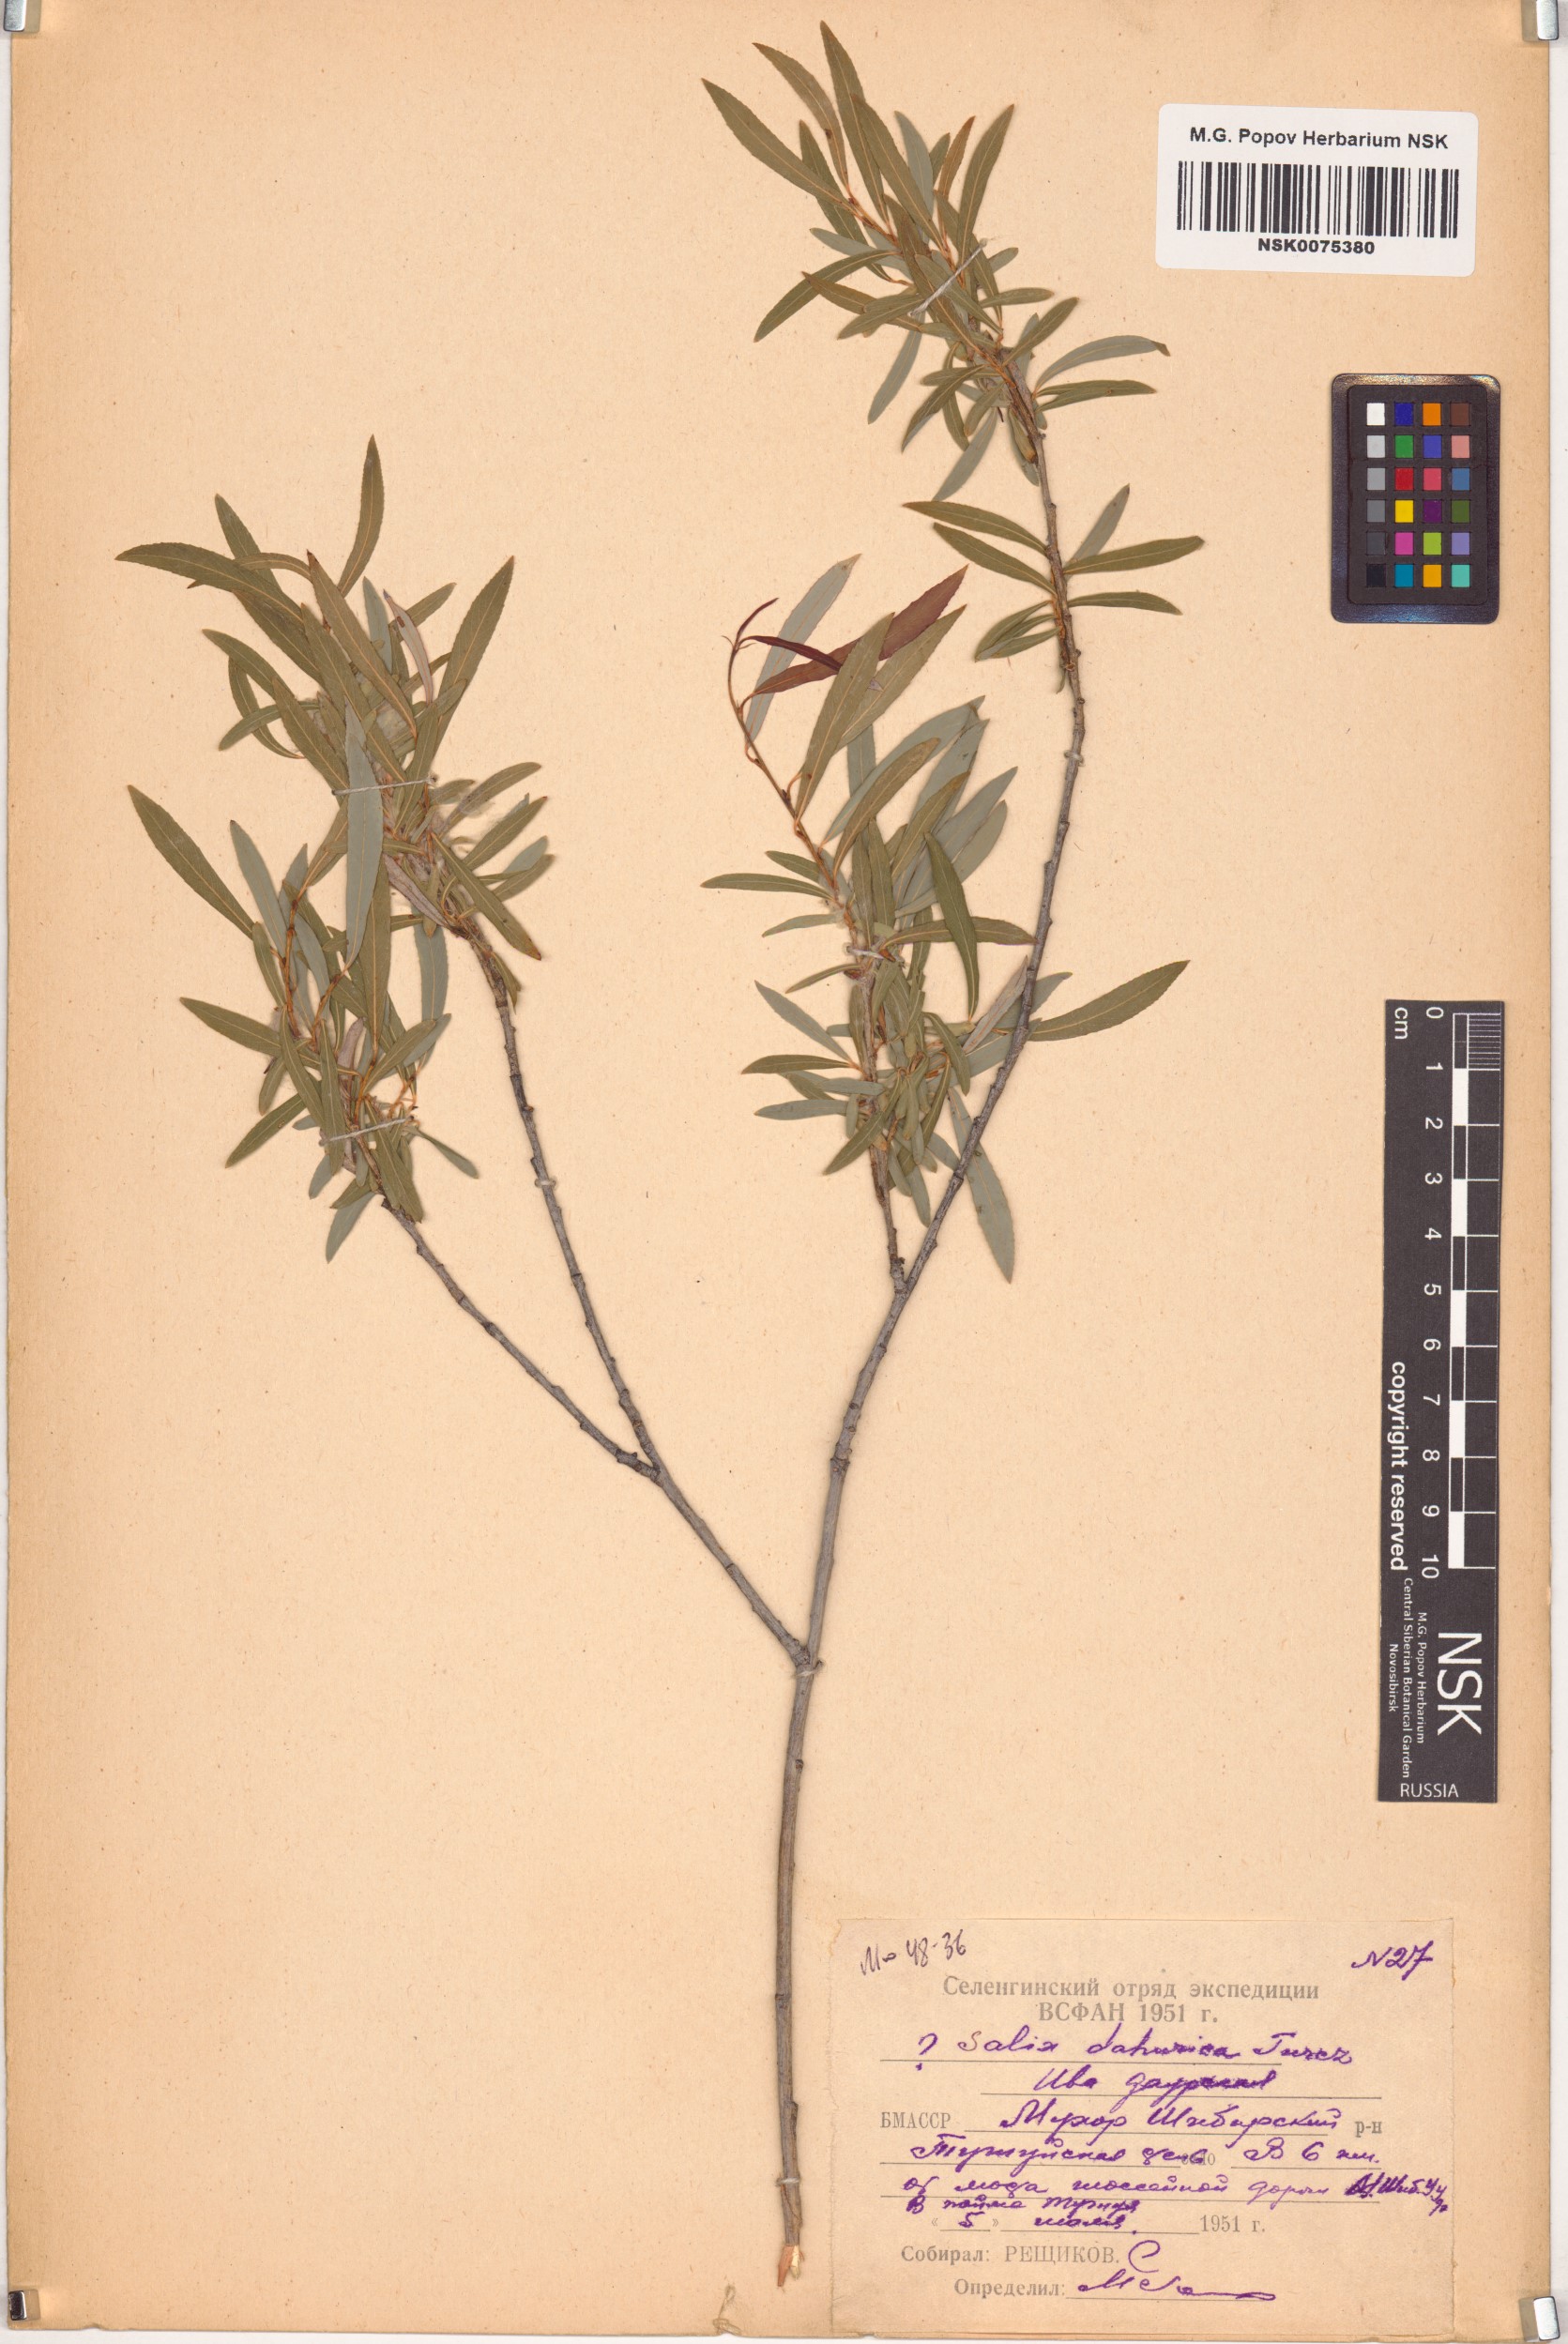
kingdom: Plantae
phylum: Tracheophyta
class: Magnoliopsida
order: Malpighiales
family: Salicaceae
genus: Salix
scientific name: Salix
